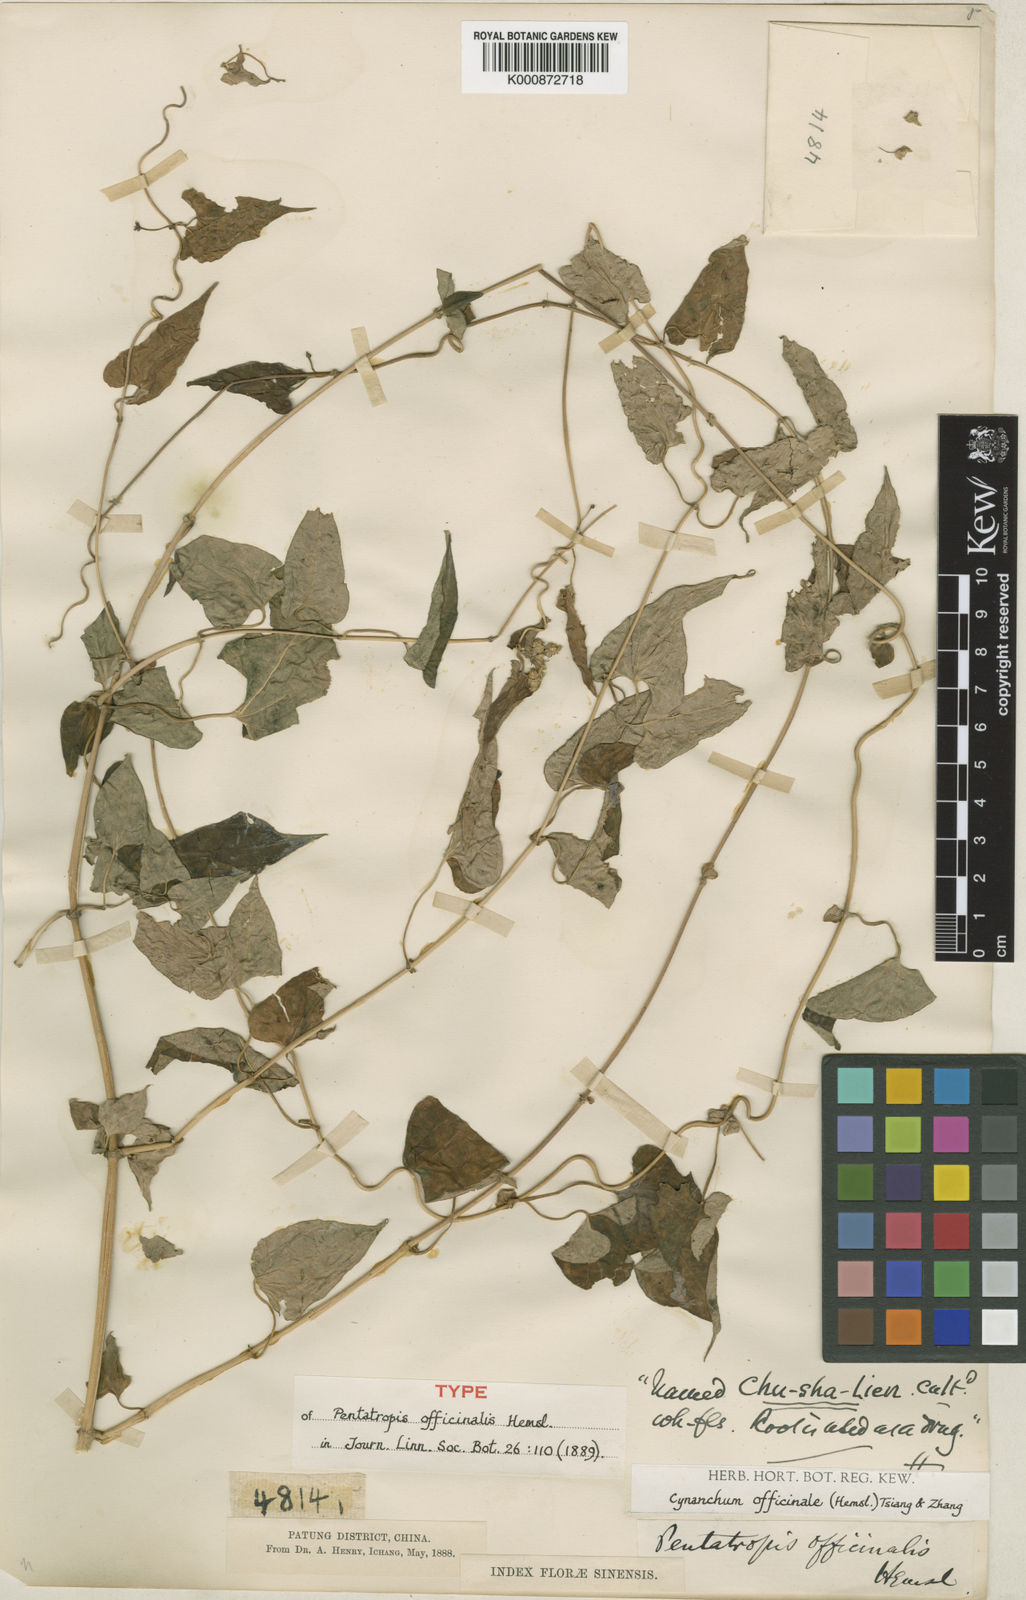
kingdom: Plantae
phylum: Tracheophyta
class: Magnoliopsida
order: Gentianales
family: Apocynaceae
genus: Cynanchum
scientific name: Cynanchum officinale
